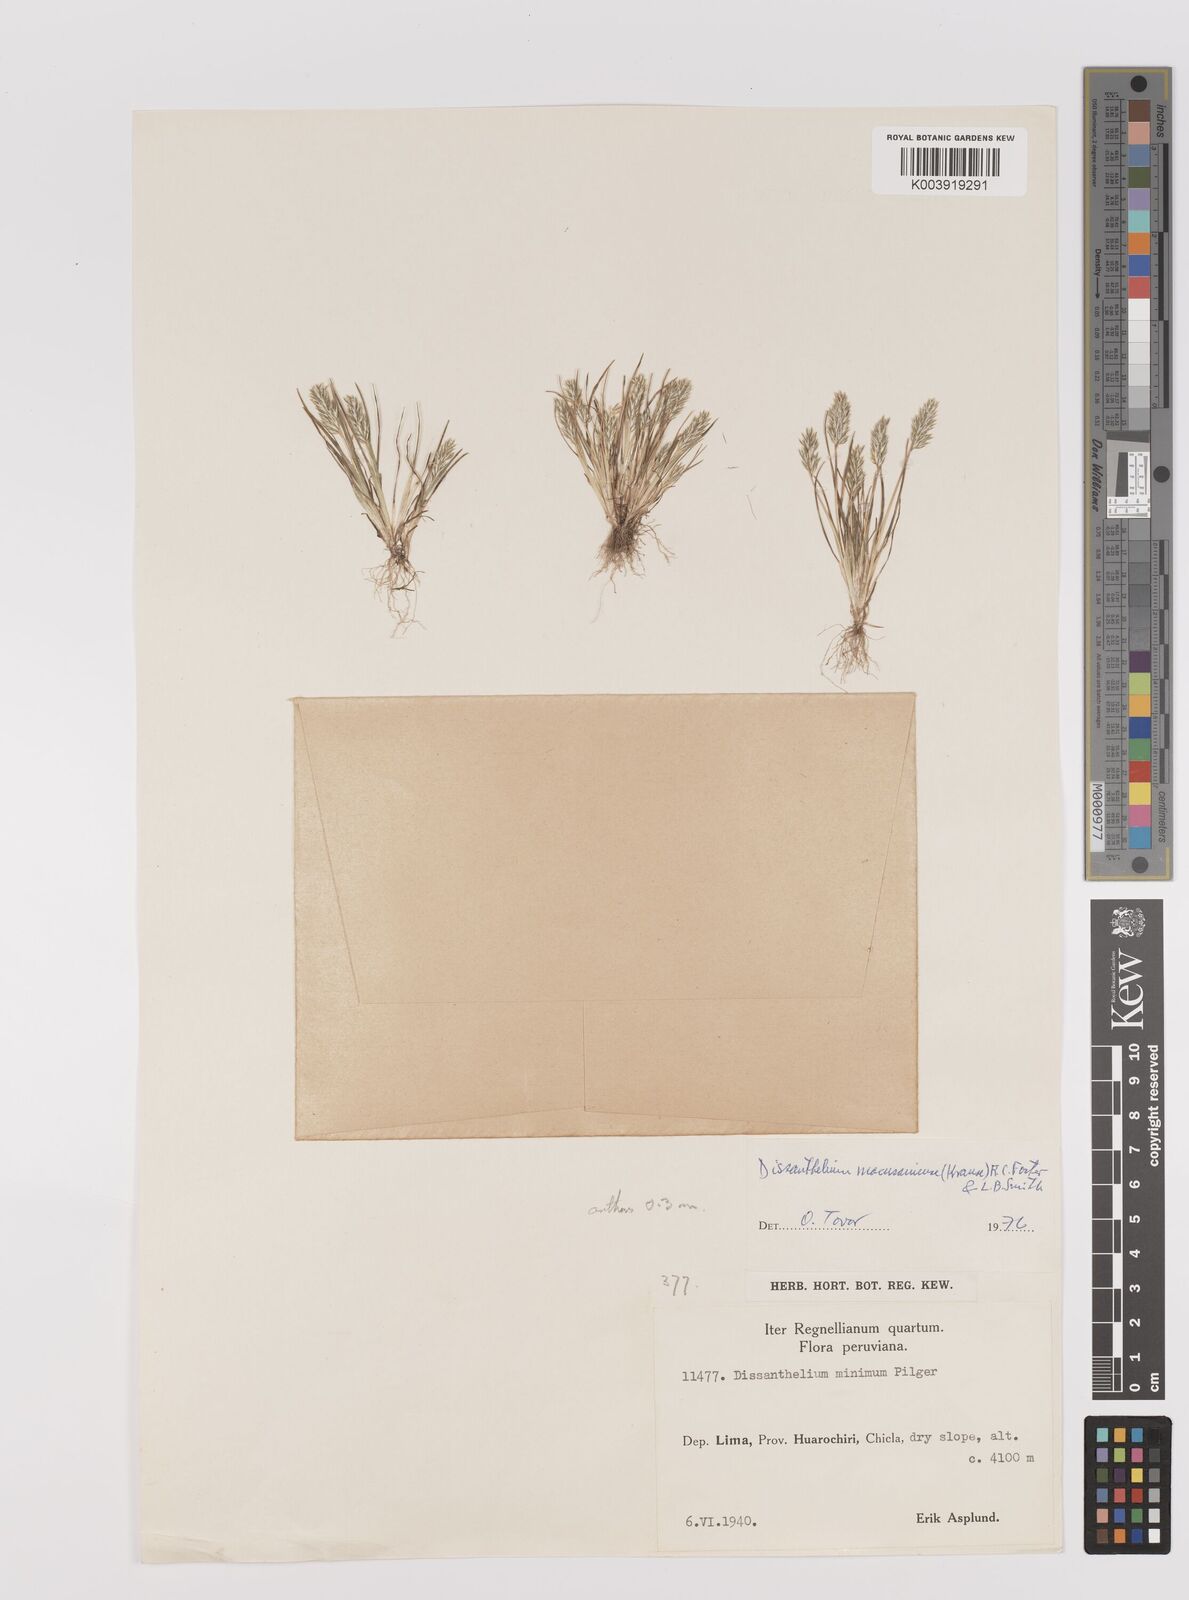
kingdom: Plantae
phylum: Tracheophyta
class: Liliopsida
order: Poales
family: Poaceae
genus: Poa
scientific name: Poa macusaniensis
